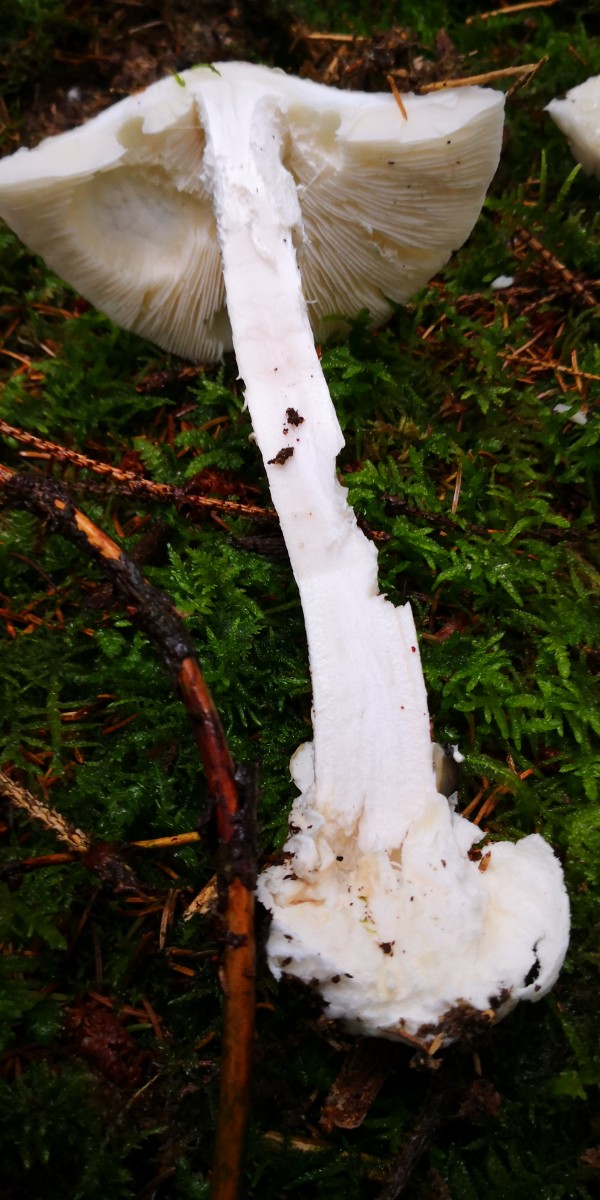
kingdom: Fungi
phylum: Basidiomycota
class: Agaricomycetes
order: Agaricales
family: Amanitaceae
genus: Amanita
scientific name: Amanita virosa
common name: snehvid fluesvamp
